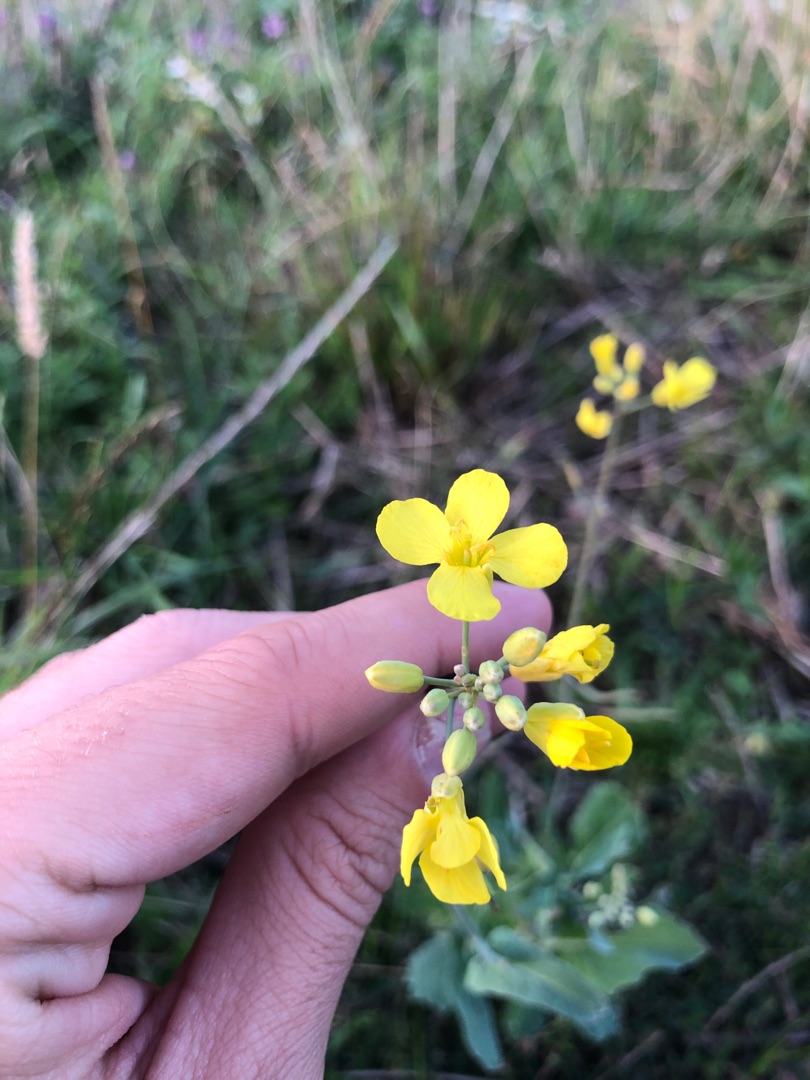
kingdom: Plantae
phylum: Tracheophyta
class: Magnoliopsida
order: Brassicales
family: Brassicaceae
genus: Brassica
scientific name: Brassica rapa
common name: Ager-kål
